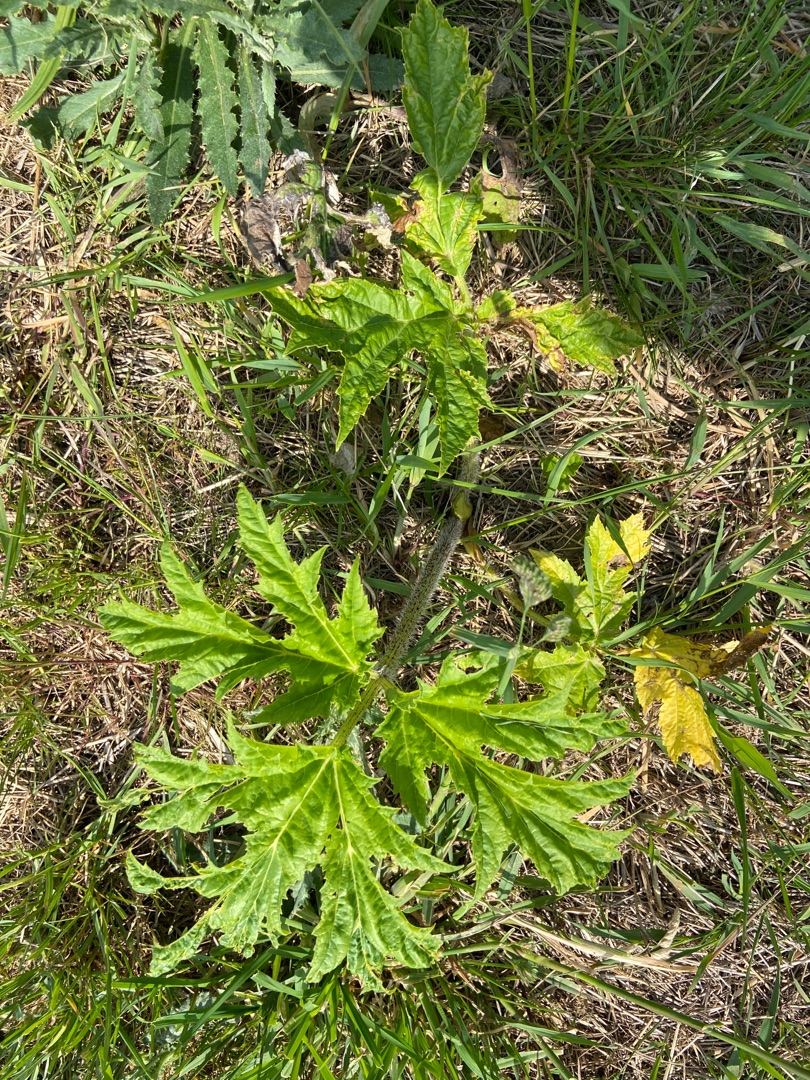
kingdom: Plantae
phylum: Tracheophyta
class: Magnoliopsida
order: Apiales
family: Apiaceae
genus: Heracleum
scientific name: Heracleum mantegazzianum
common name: Kæmpe-bjørneklo
